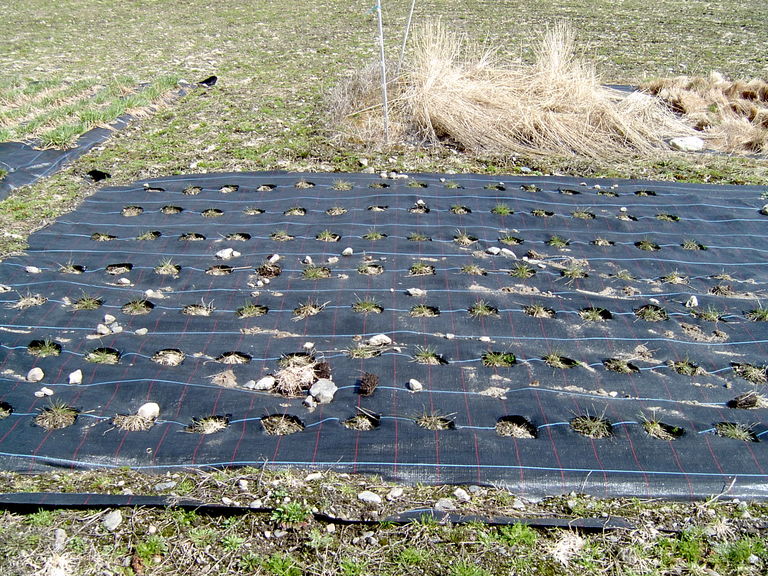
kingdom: Plantae
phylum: Tracheophyta
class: Liliopsida
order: Poales
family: Poaceae
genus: Festuca
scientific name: Festuca rubra
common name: Red fescue
